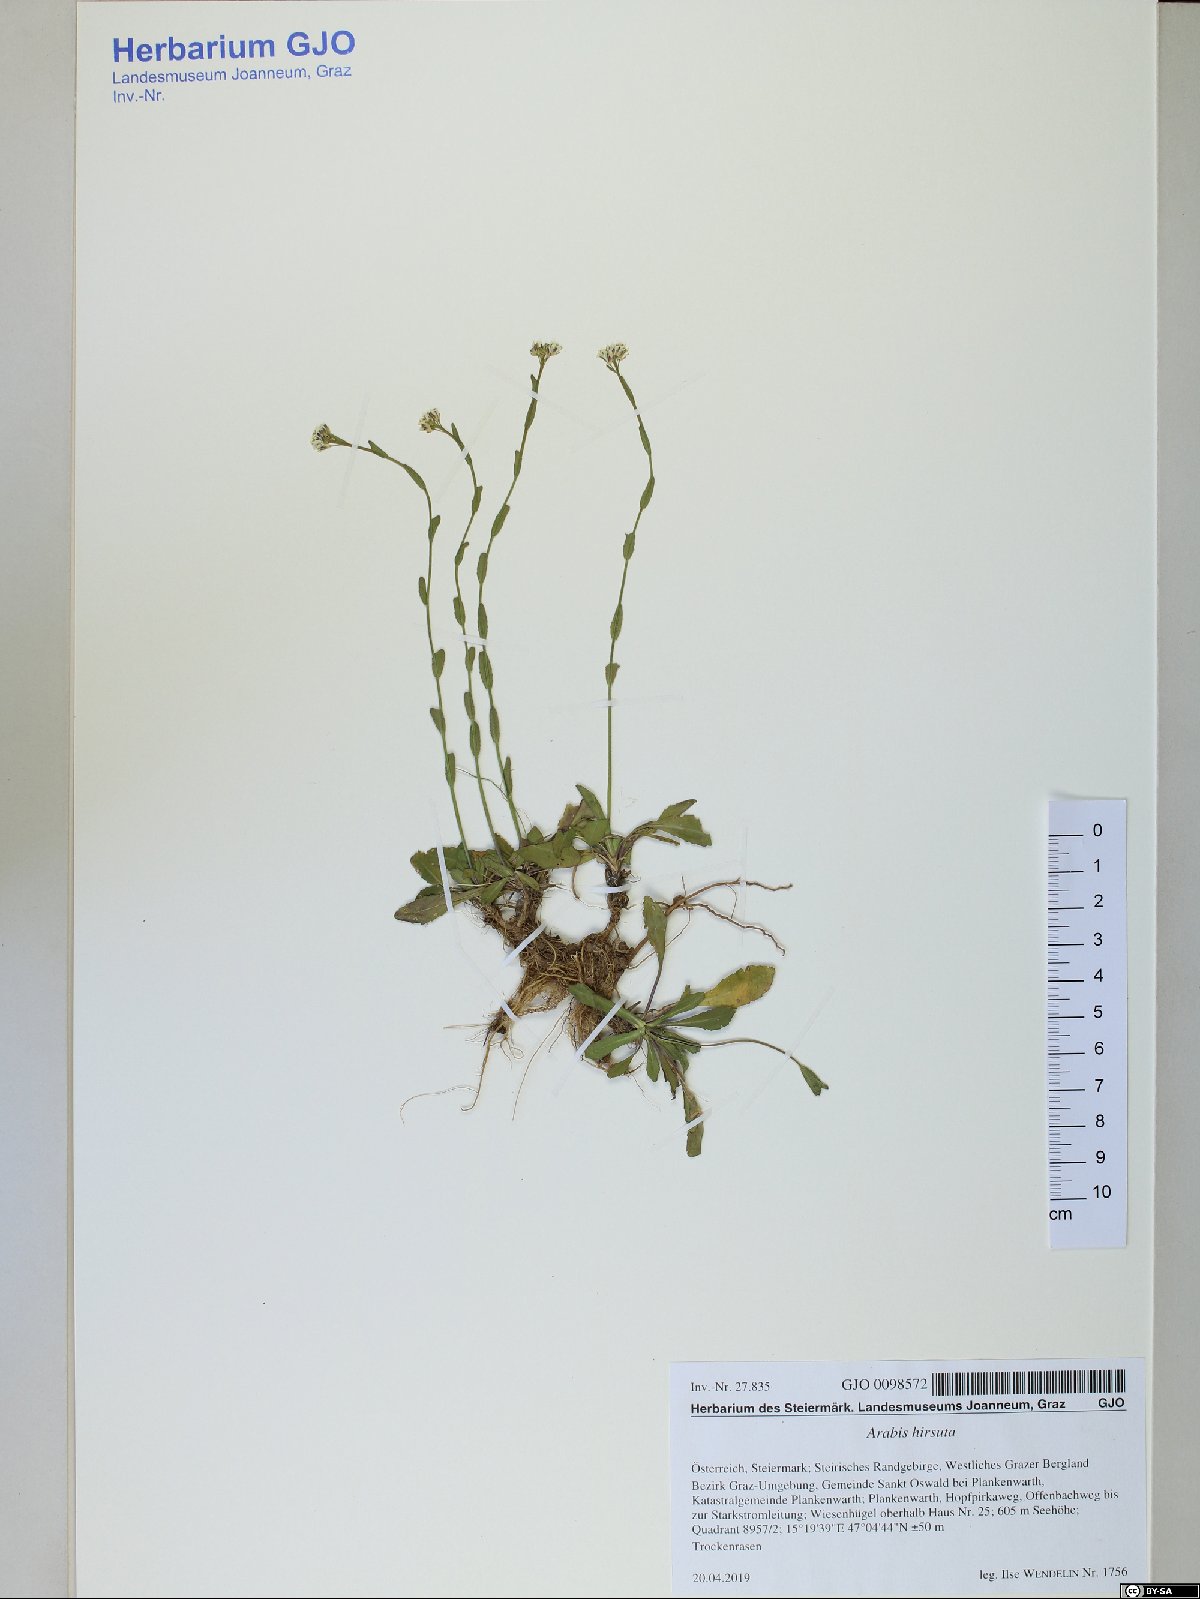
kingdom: Plantae
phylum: Tracheophyta
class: Magnoliopsida
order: Brassicales
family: Brassicaceae
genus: Arabis
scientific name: Arabis hirsuta
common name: Hairy rock-cress
